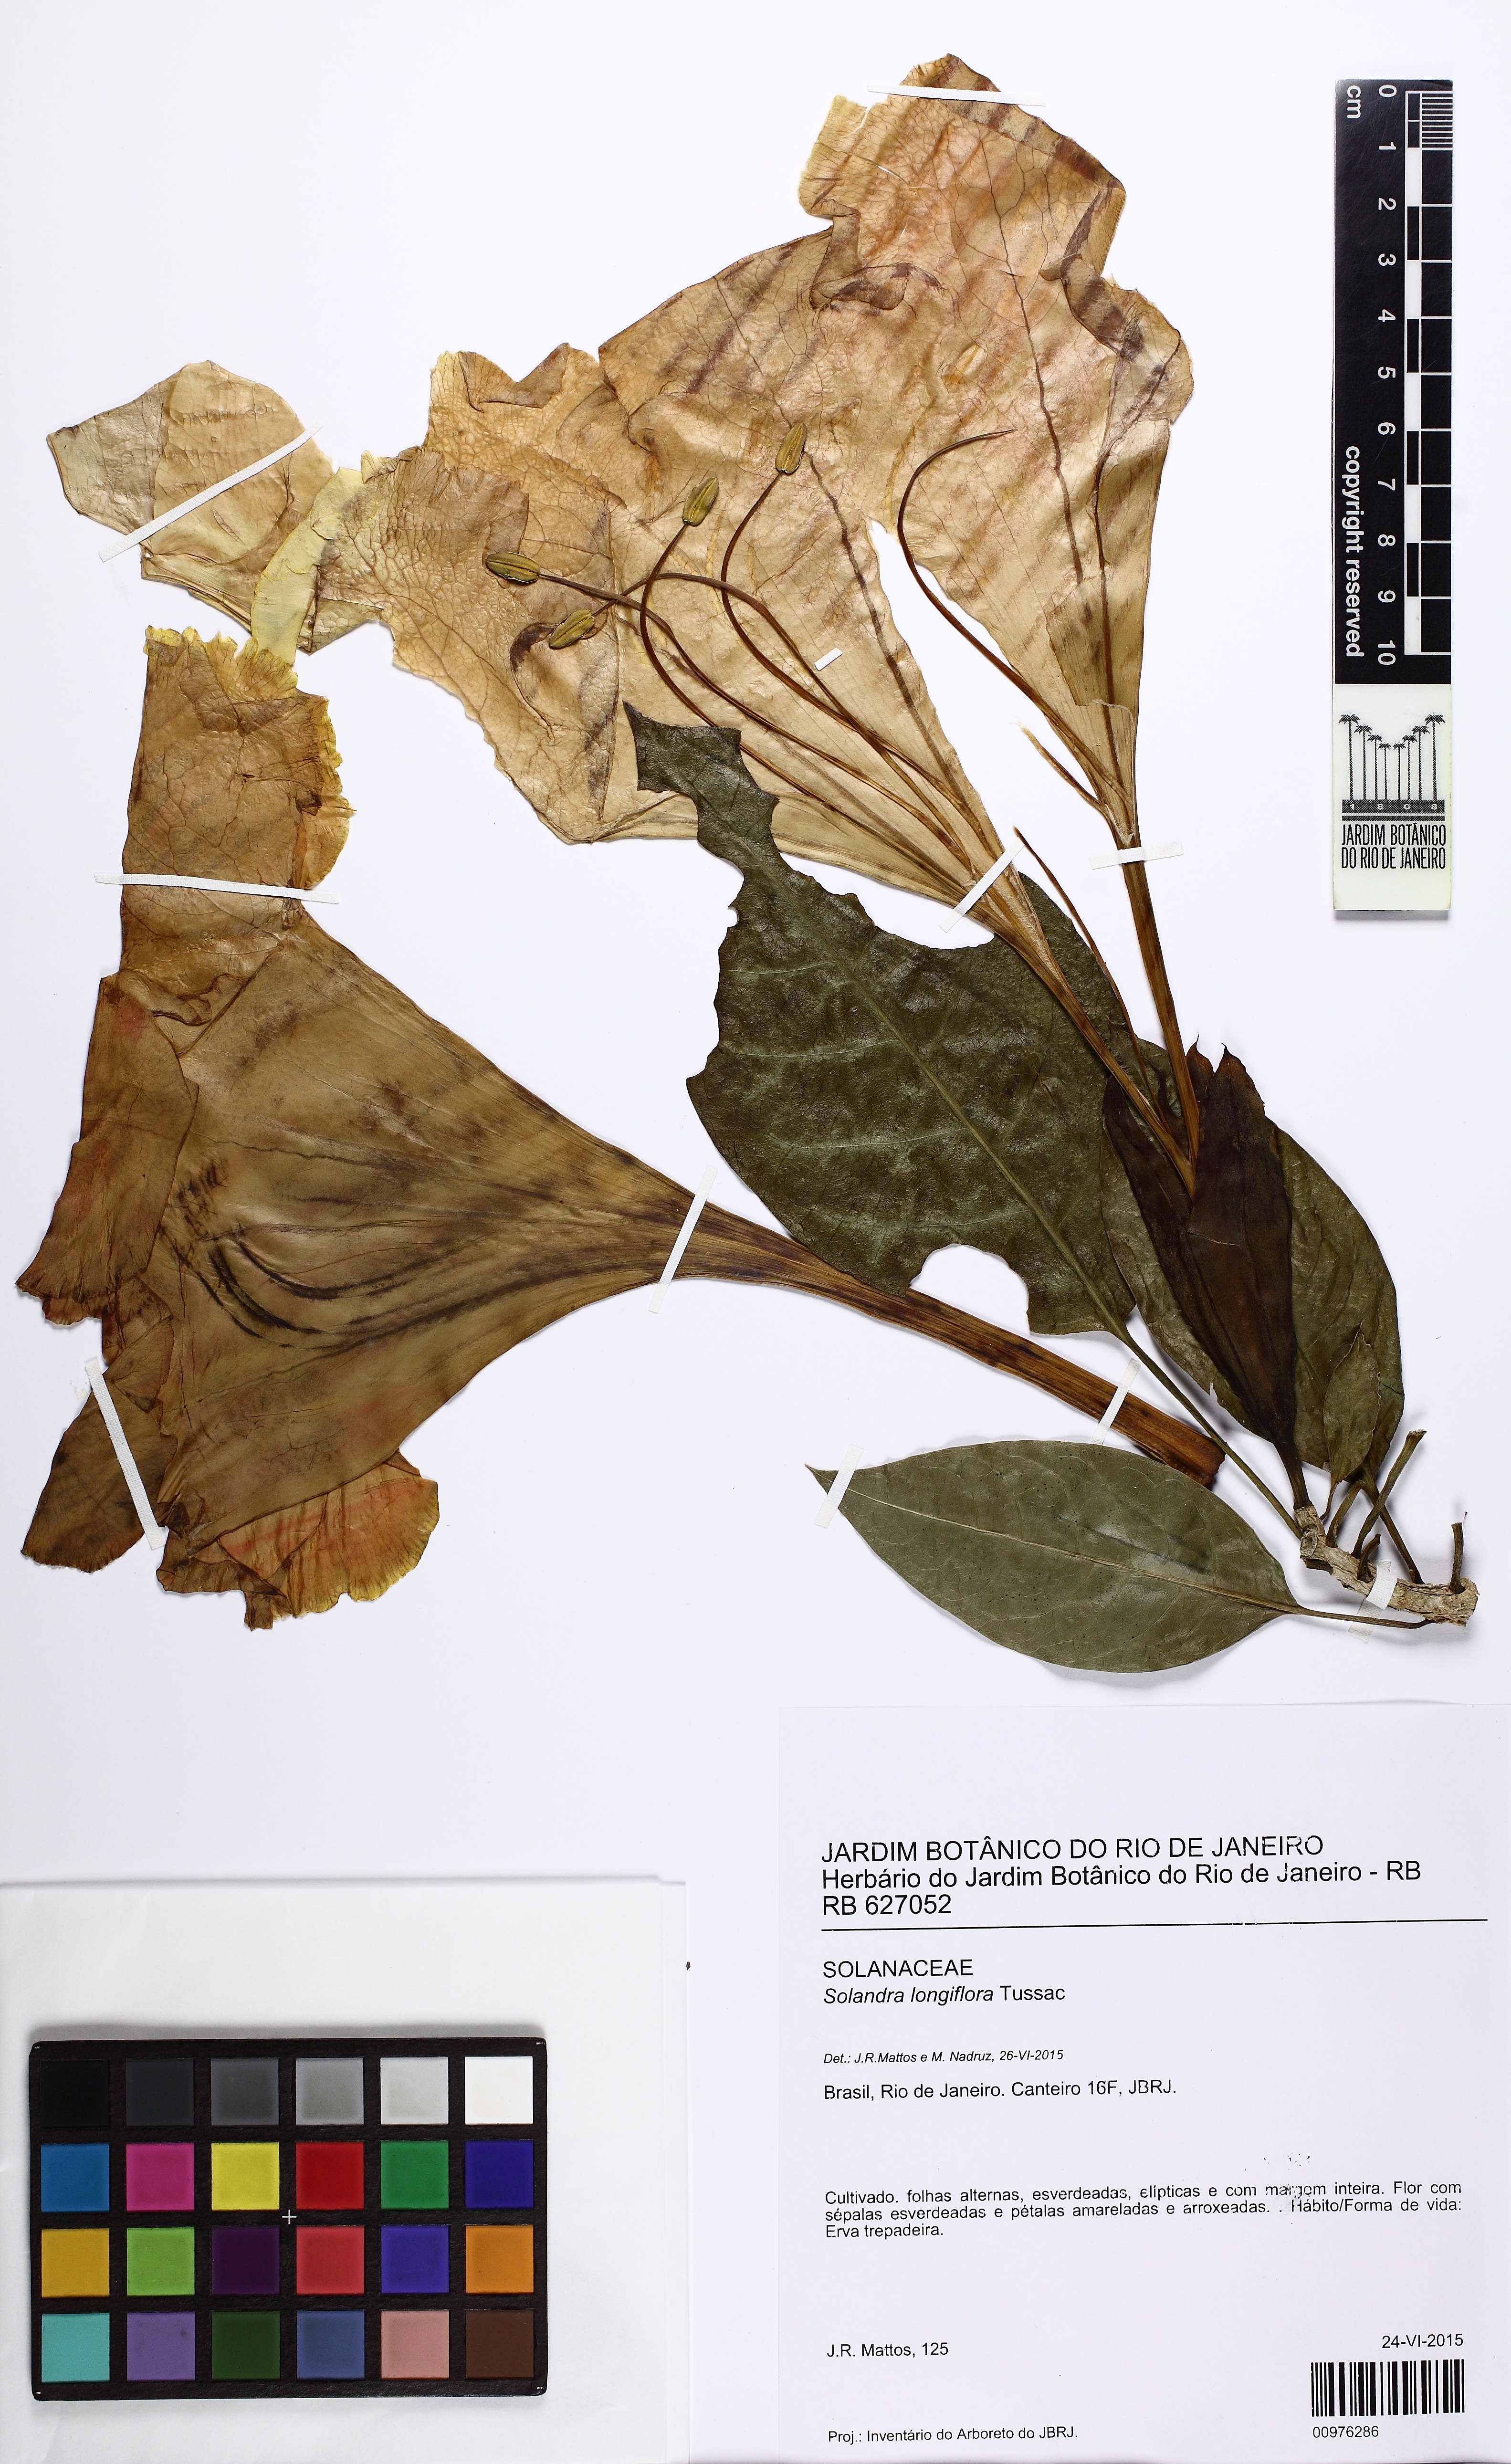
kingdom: Plantae
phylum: Tracheophyta
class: Magnoliopsida
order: Solanales
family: Solanaceae
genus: Solandra
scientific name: Solandra grandiflora
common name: Showy chalicevine
